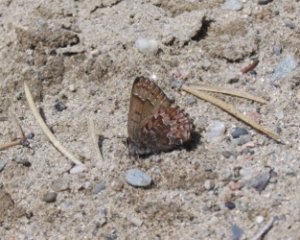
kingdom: Animalia
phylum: Arthropoda
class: Insecta
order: Lepidoptera
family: Lycaenidae
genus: Incisalia
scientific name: Incisalia niphon
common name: Eastern Pine Elfin
